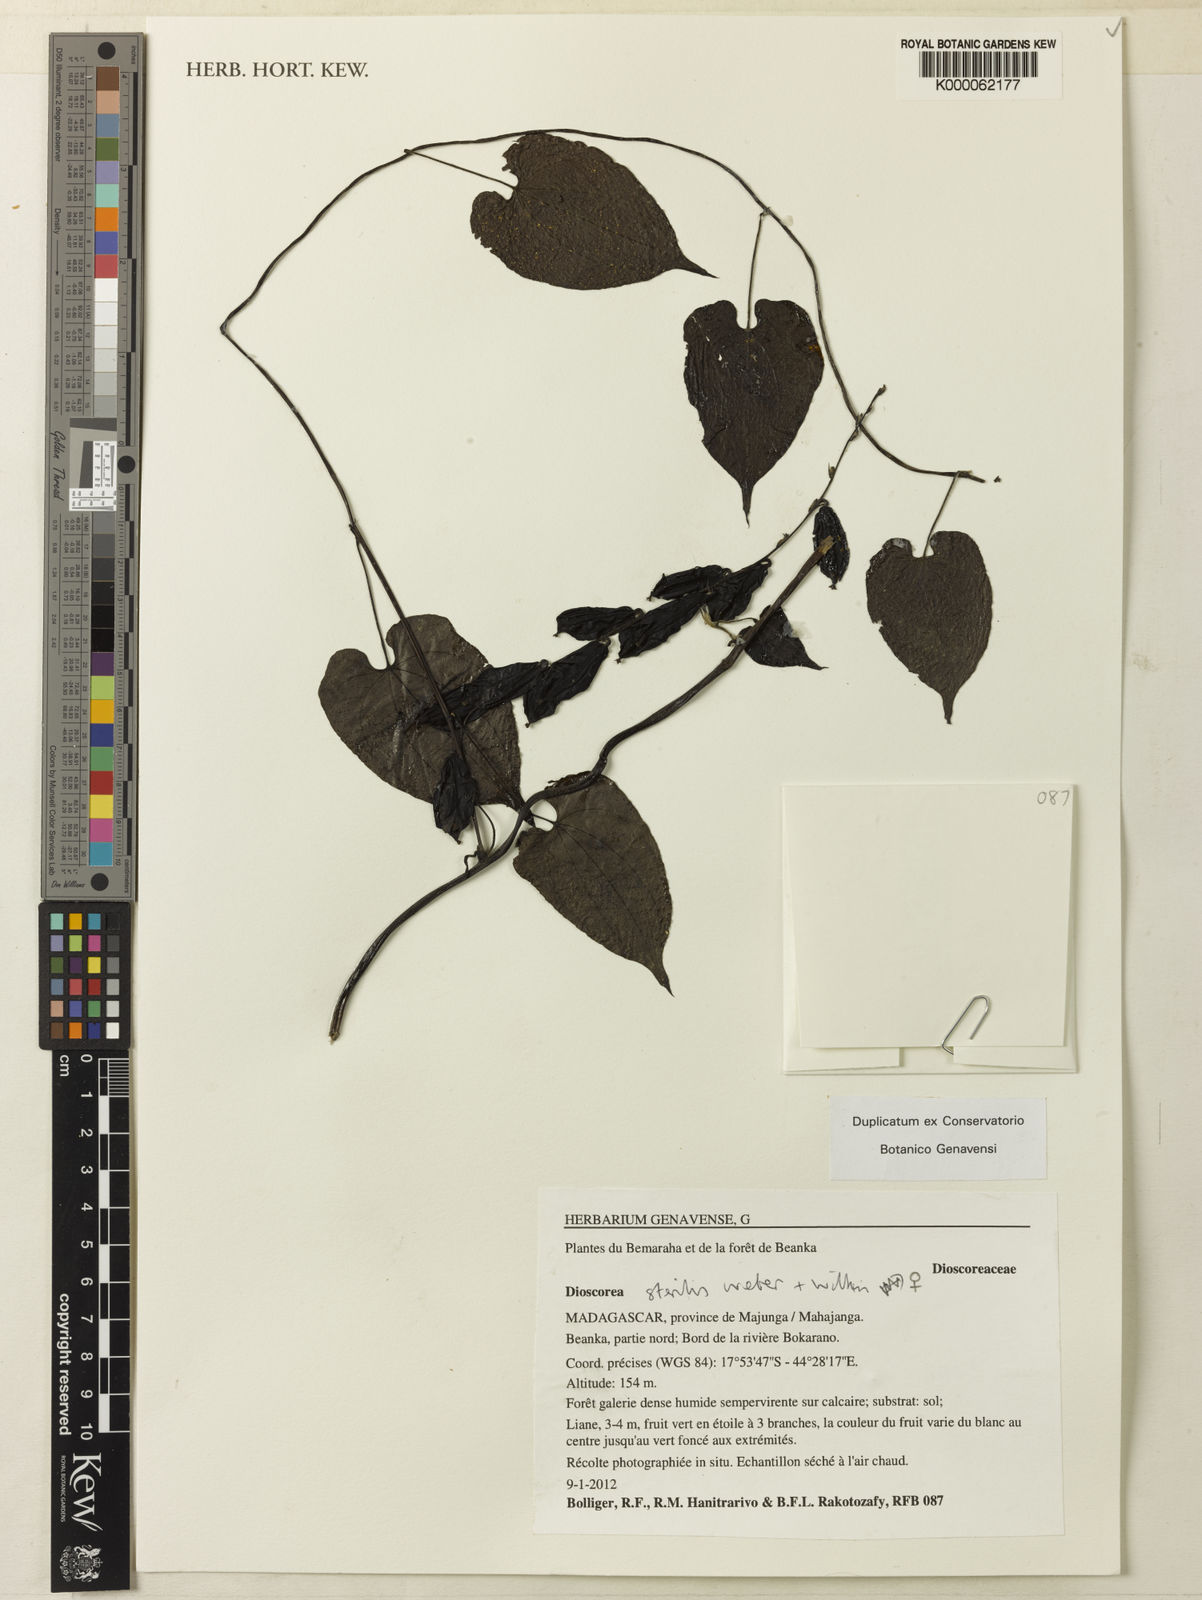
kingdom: Plantae
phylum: Tracheophyta
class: Liliopsida
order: Dioscoreales
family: Dioscoreaceae
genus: Dioscorea
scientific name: Dioscorea sterilis
